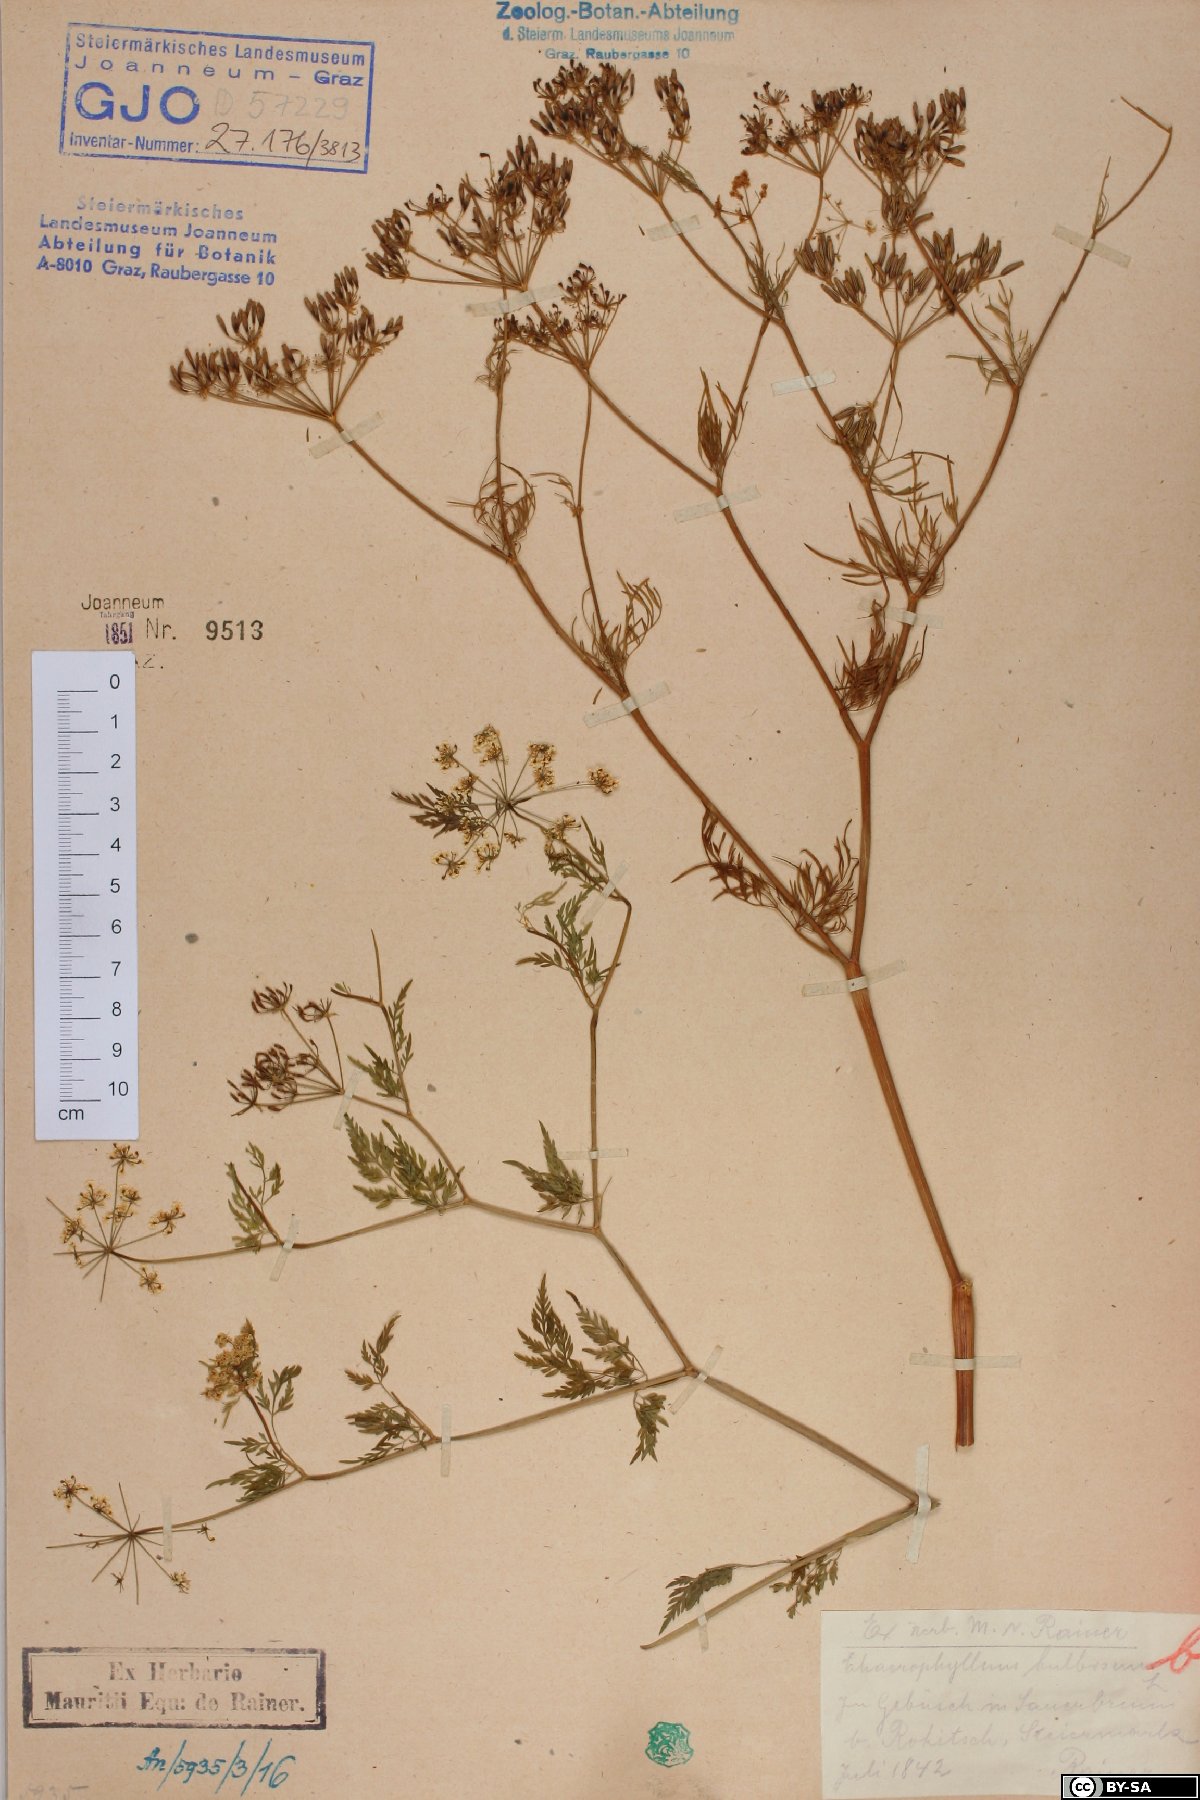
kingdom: Plantae
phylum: Tracheophyta
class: Magnoliopsida
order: Apiales
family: Apiaceae
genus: Chaerophyllum
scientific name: Chaerophyllum bulbosum
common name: Bulbous chervil
